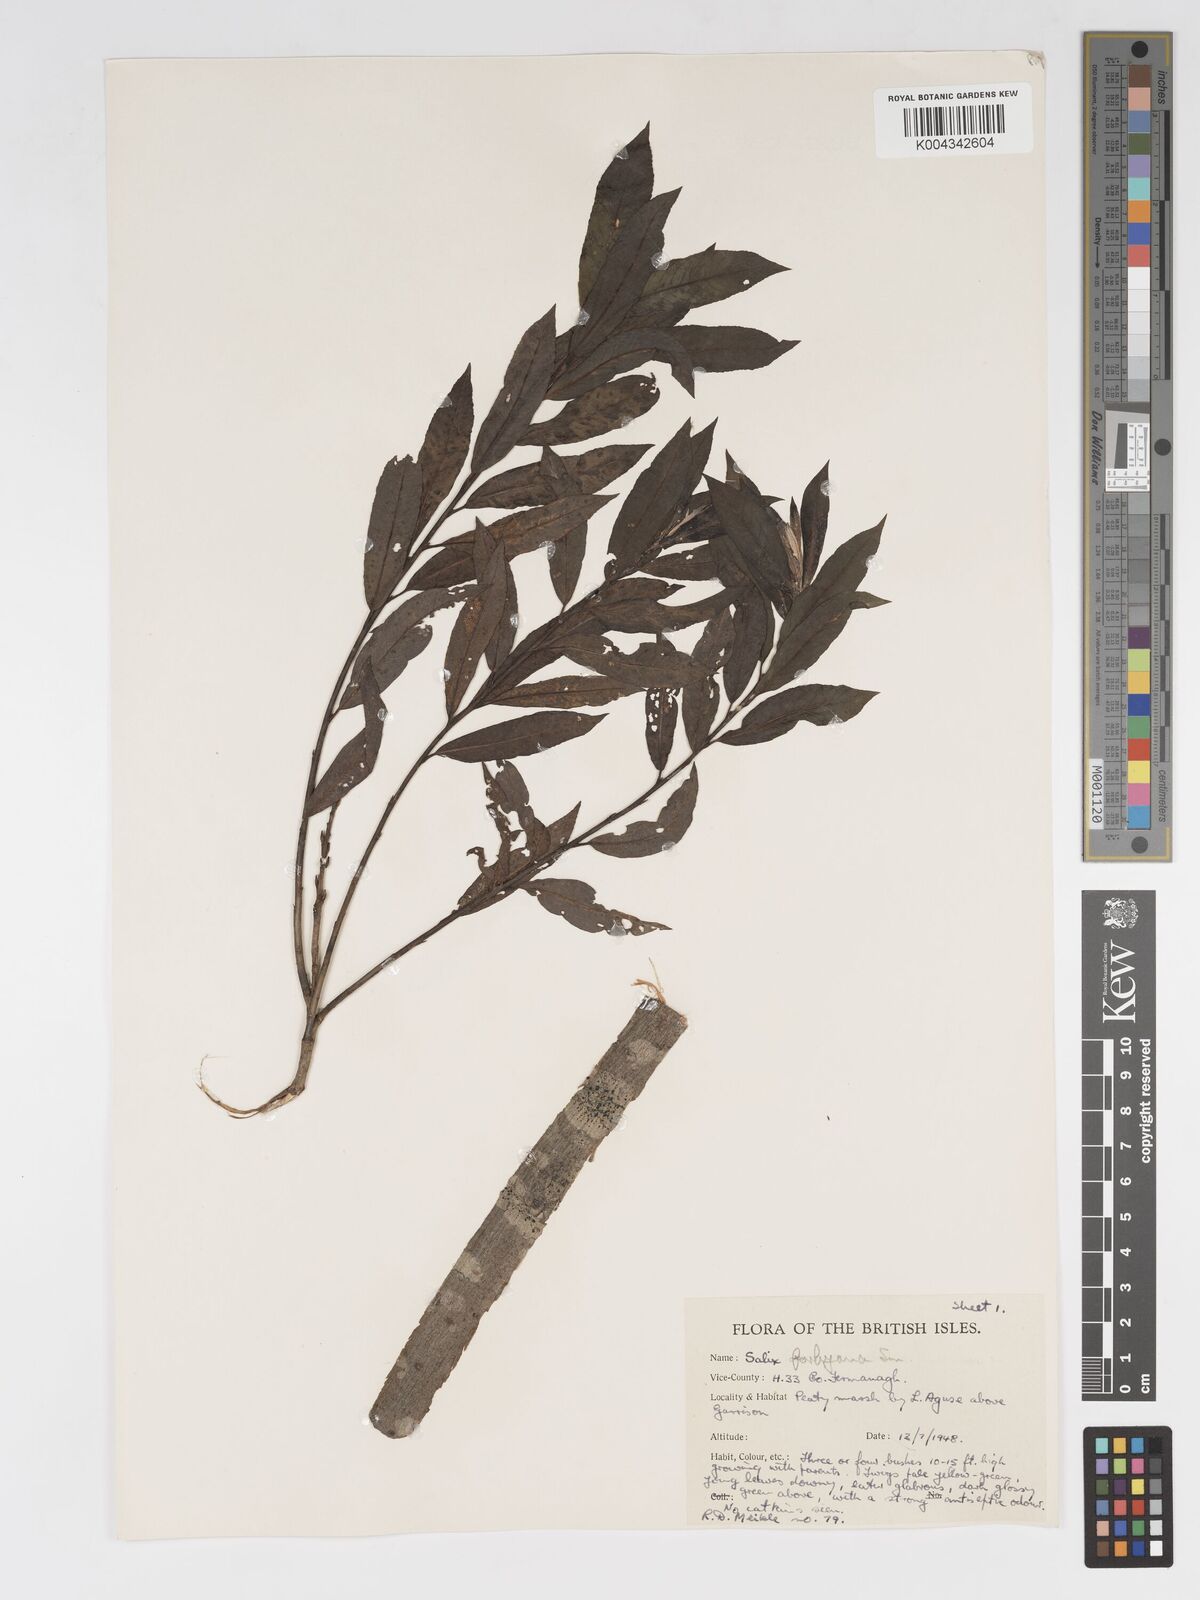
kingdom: Plantae
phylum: Tracheophyta
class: Magnoliopsida
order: Malpighiales
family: Salicaceae
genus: Salix
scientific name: Salix cinerea
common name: Common sallow
